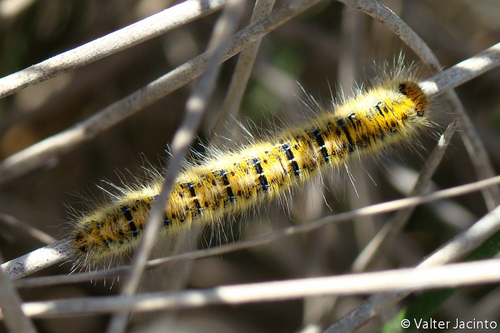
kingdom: Animalia
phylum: Arthropoda
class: Insecta
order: Lepidoptera
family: Lasiocampidae
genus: Lasiocampa
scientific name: Lasiocampa trifolii
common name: Grass eggar
